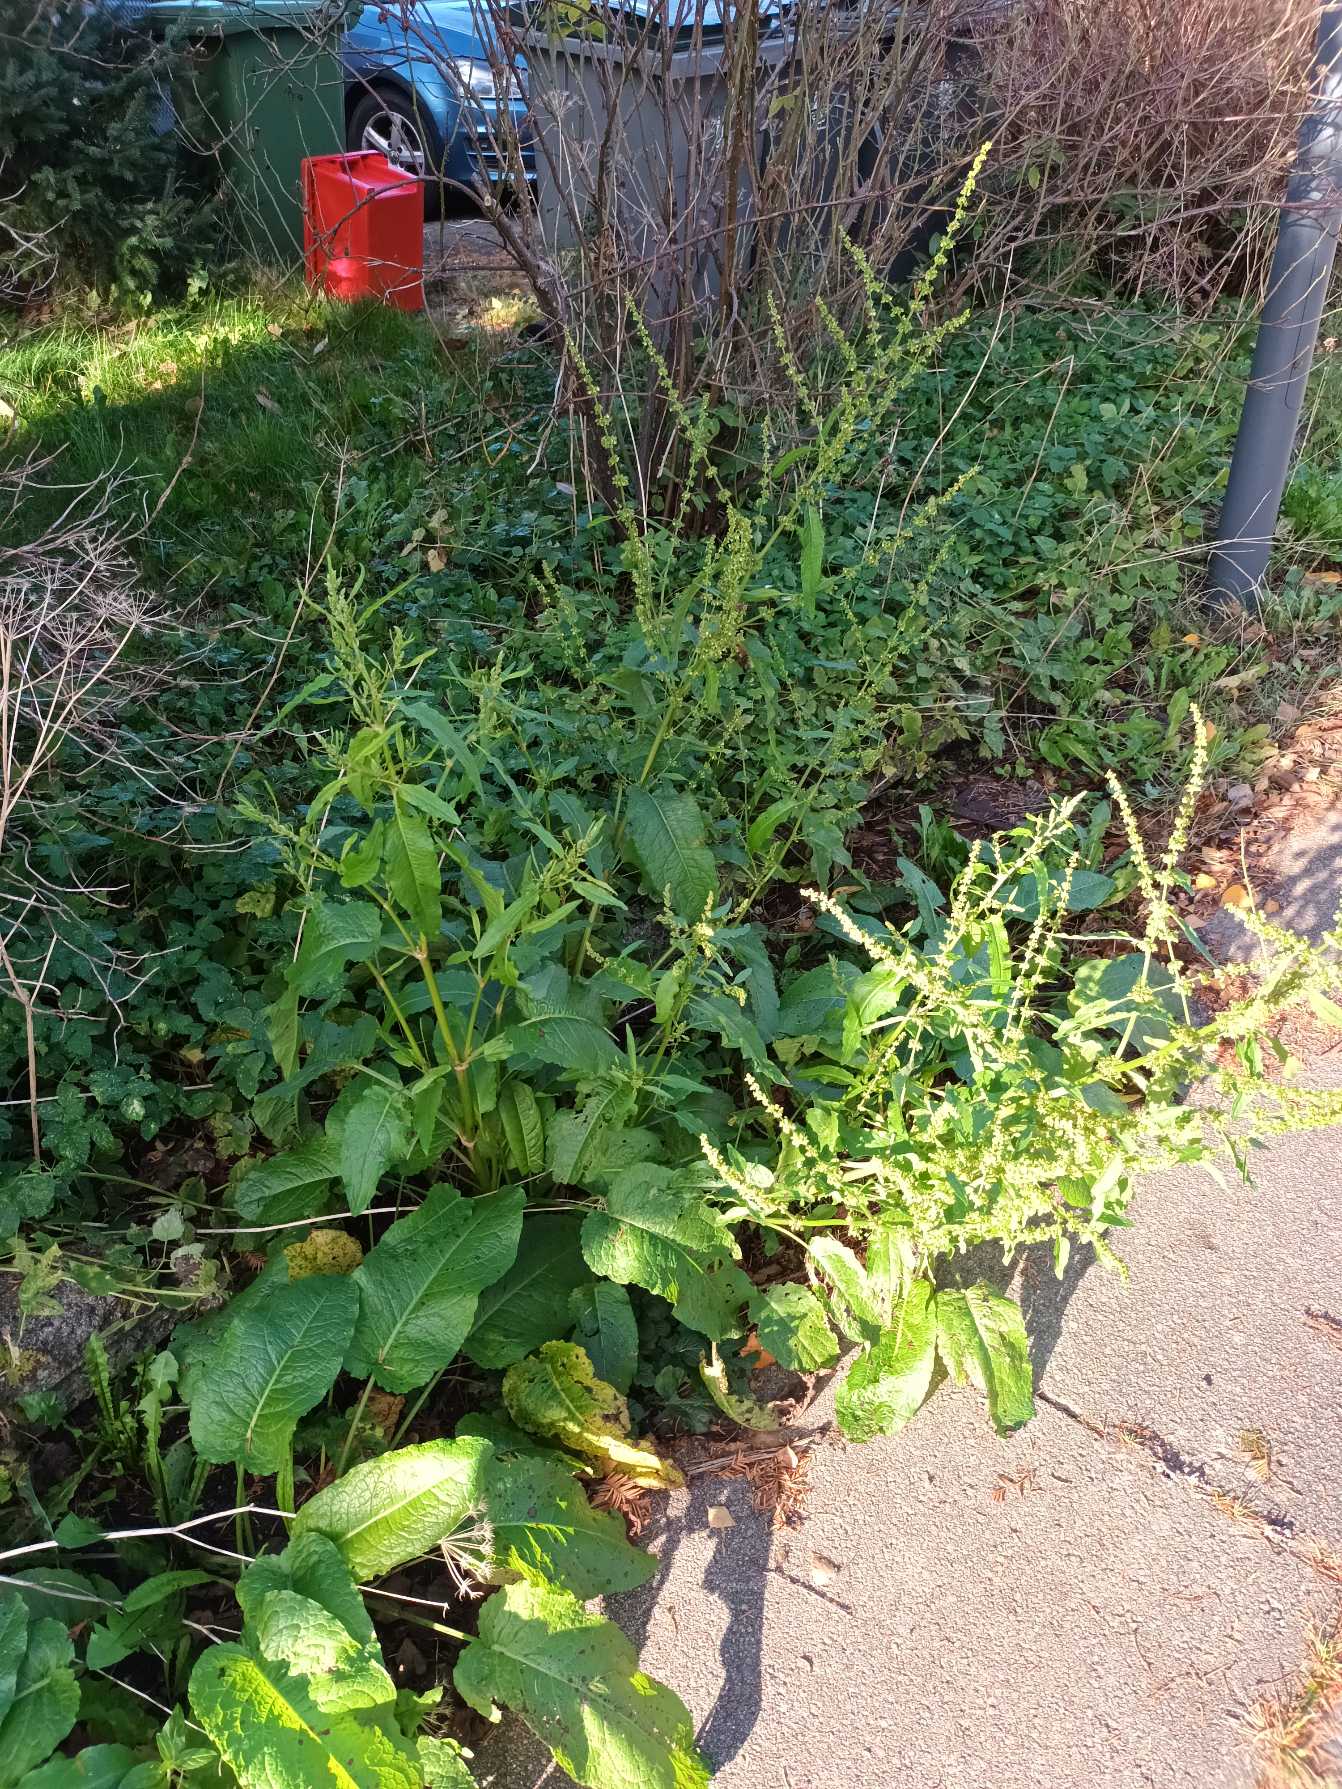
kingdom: Plantae
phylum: Tracheophyta
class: Magnoliopsida
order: Caryophyllales
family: Polygonaceae
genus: Rumex
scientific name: Rumex obtusifolius
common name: Butbladet skræppe
